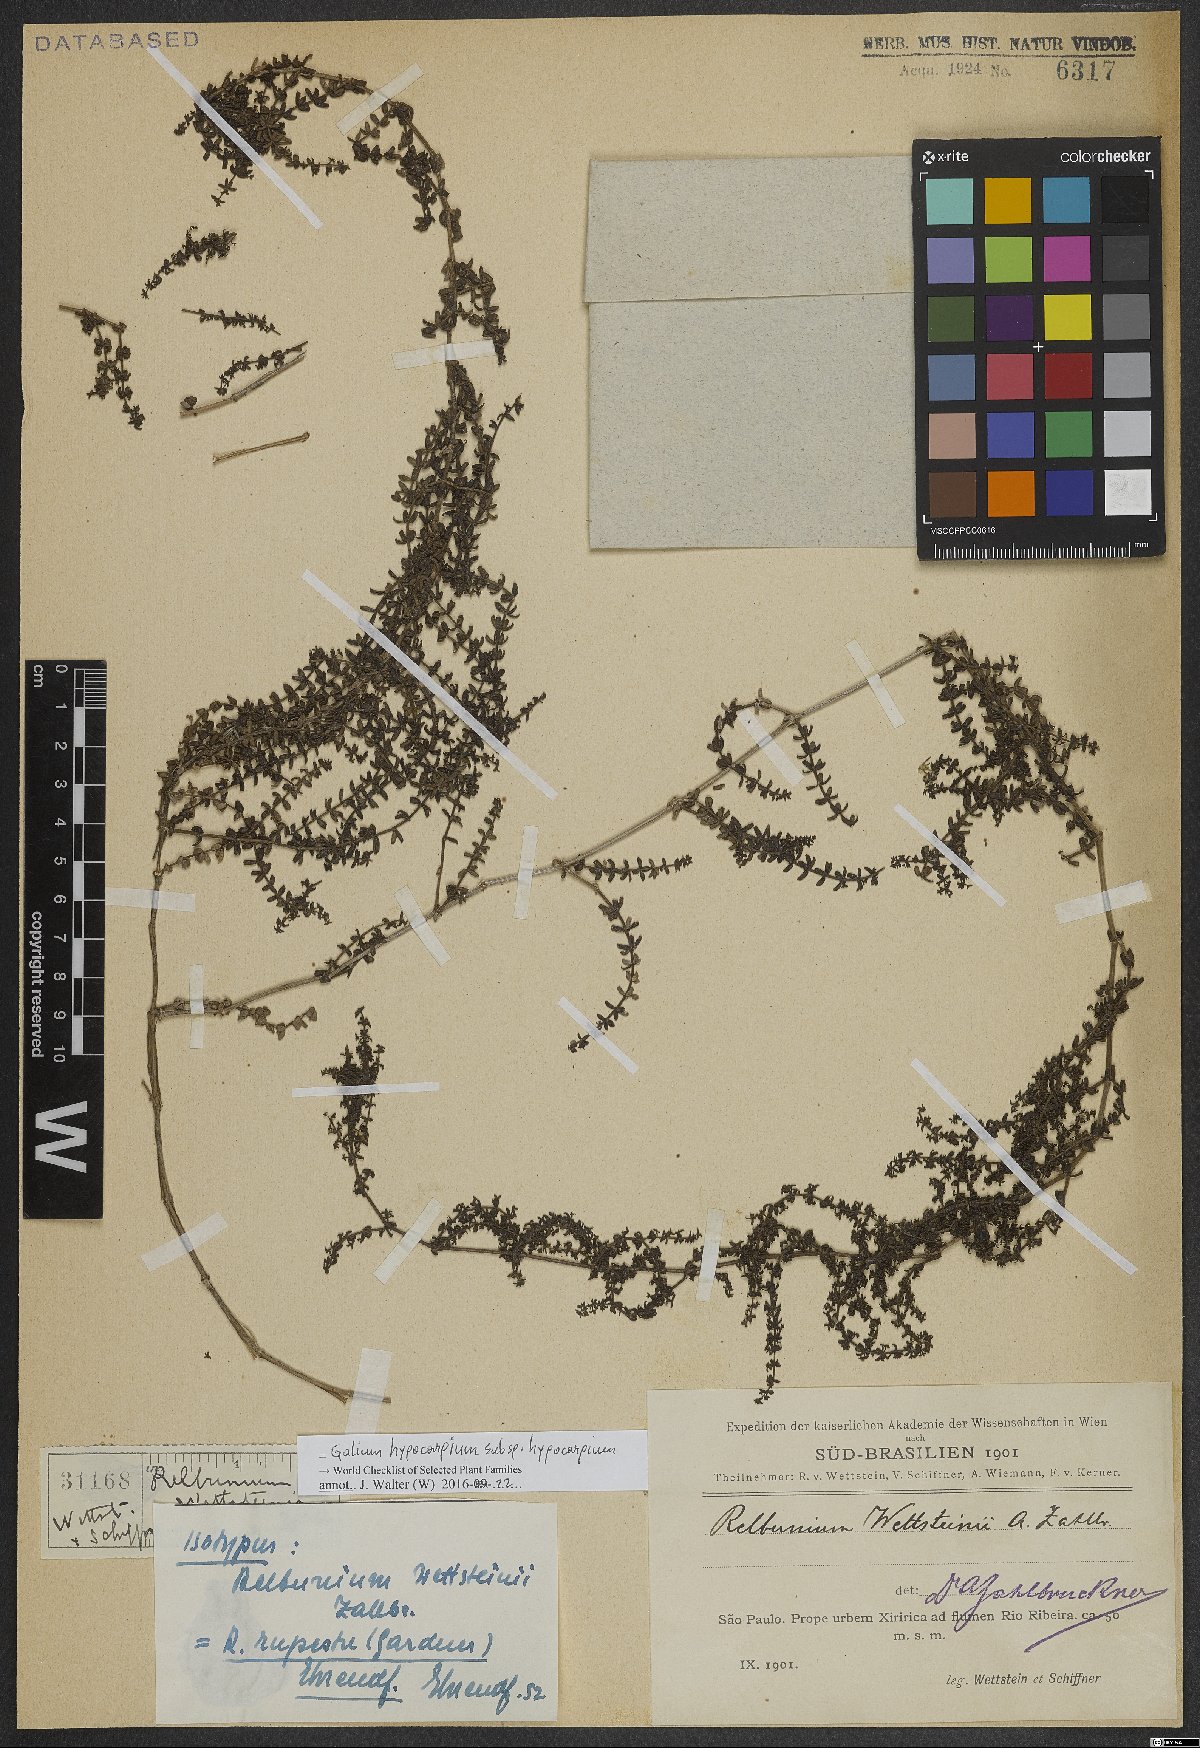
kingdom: Plantae
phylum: Tracheophyta
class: Magnoliopsida
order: Gentianales
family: Rubiaceae
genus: Galium
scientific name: Galium hypocarpium
